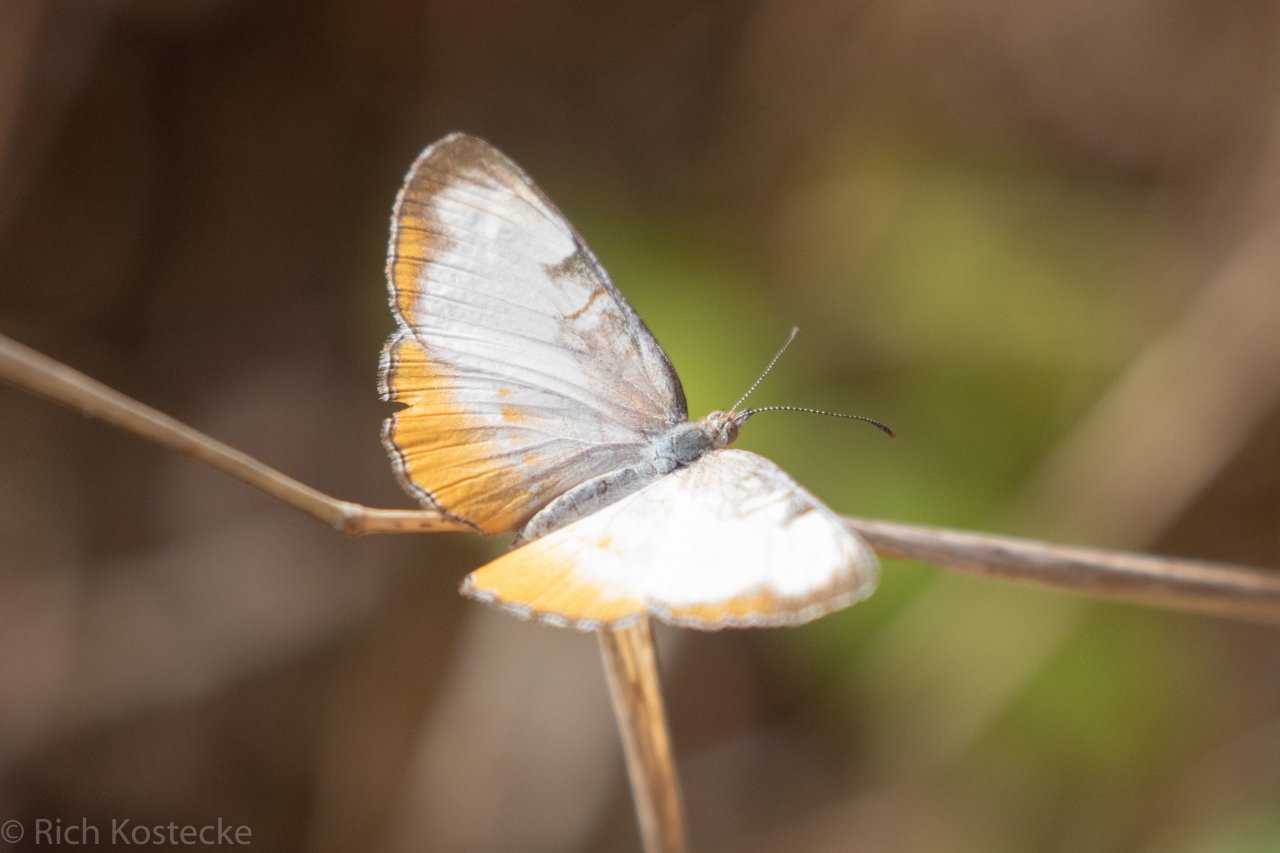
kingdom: Animalia
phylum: Arthropoda
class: Insecta
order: Lepidoptera
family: Nymphalidae
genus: Mestra
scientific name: Mestra amymone
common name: Common Mestra
